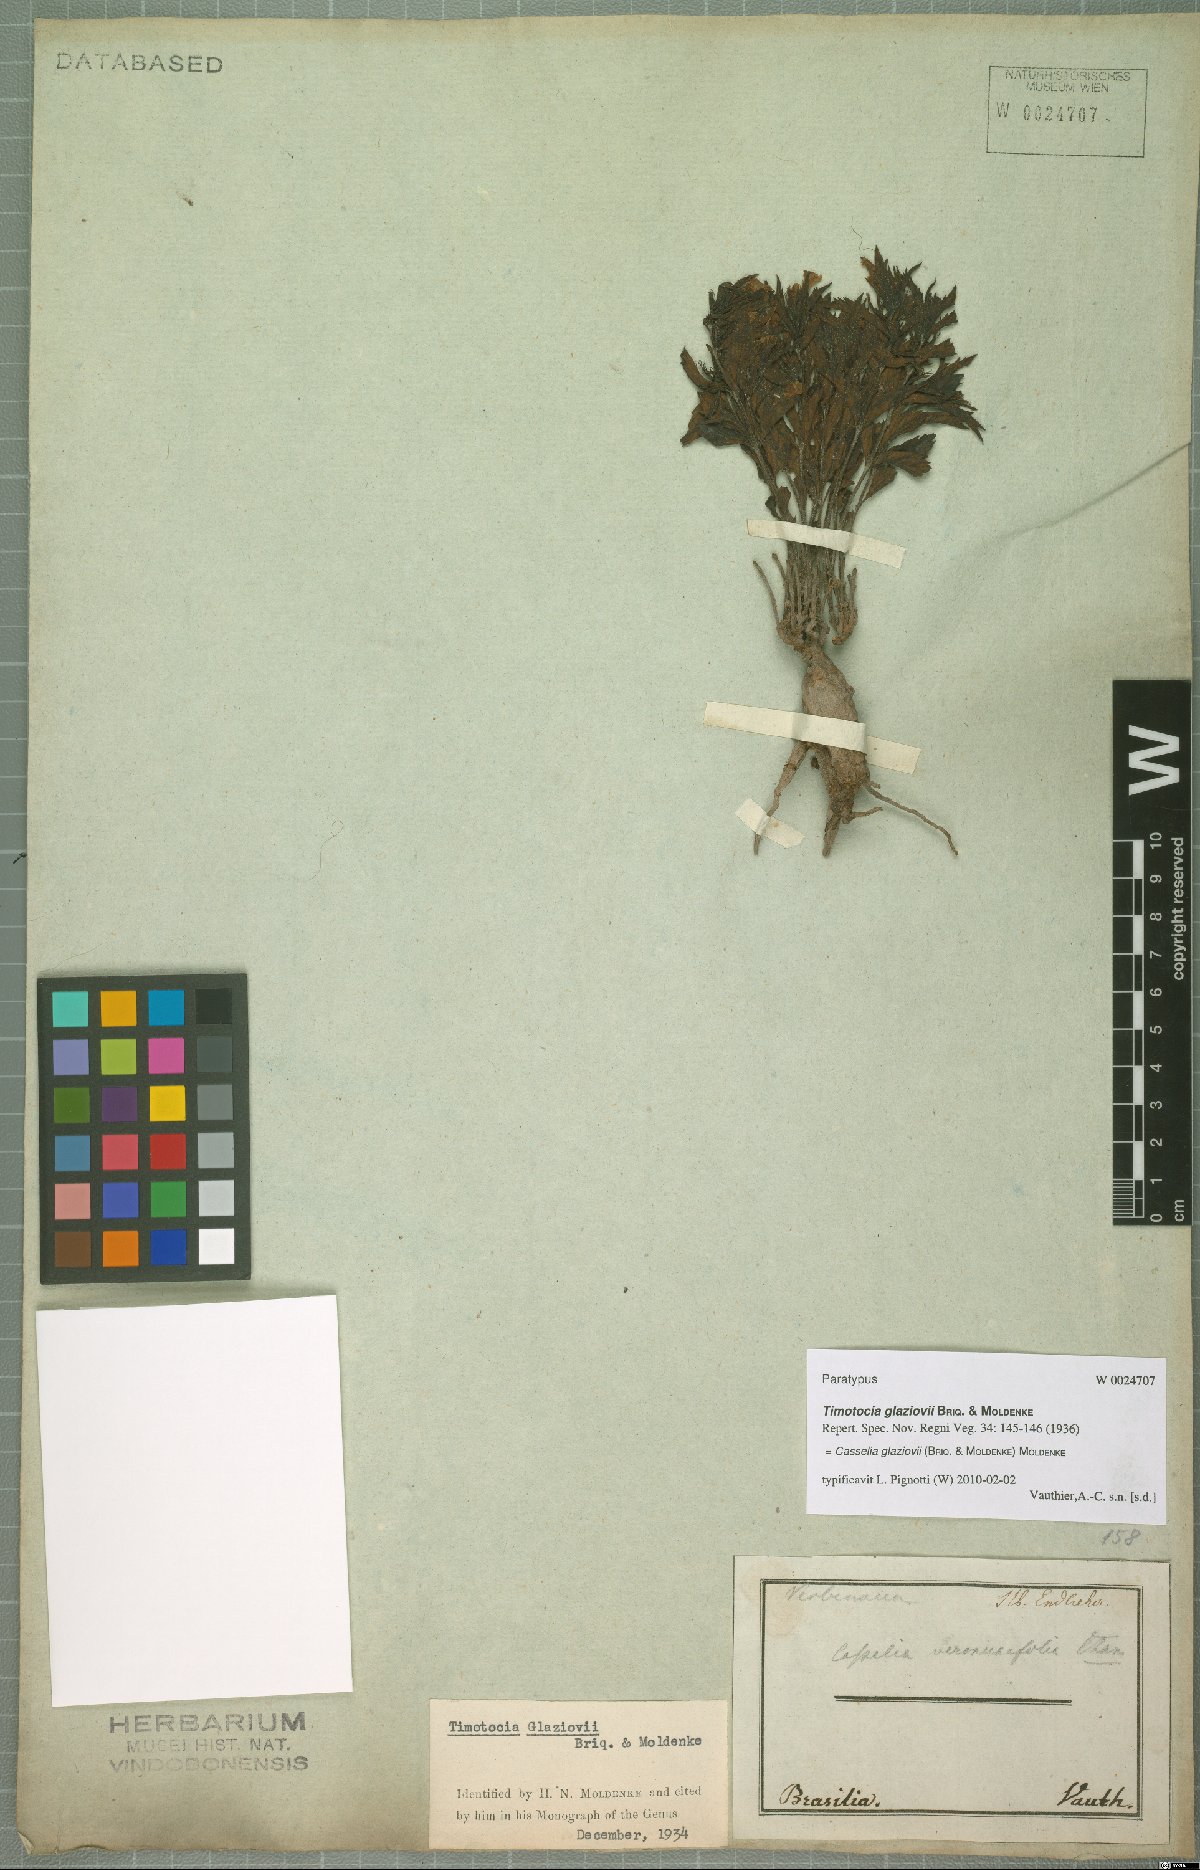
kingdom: Plantae
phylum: Tracheophyta
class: Magnoliopsida
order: Lamiales
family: Verbenaceae
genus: Casselia
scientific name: Casselia glaziovii
